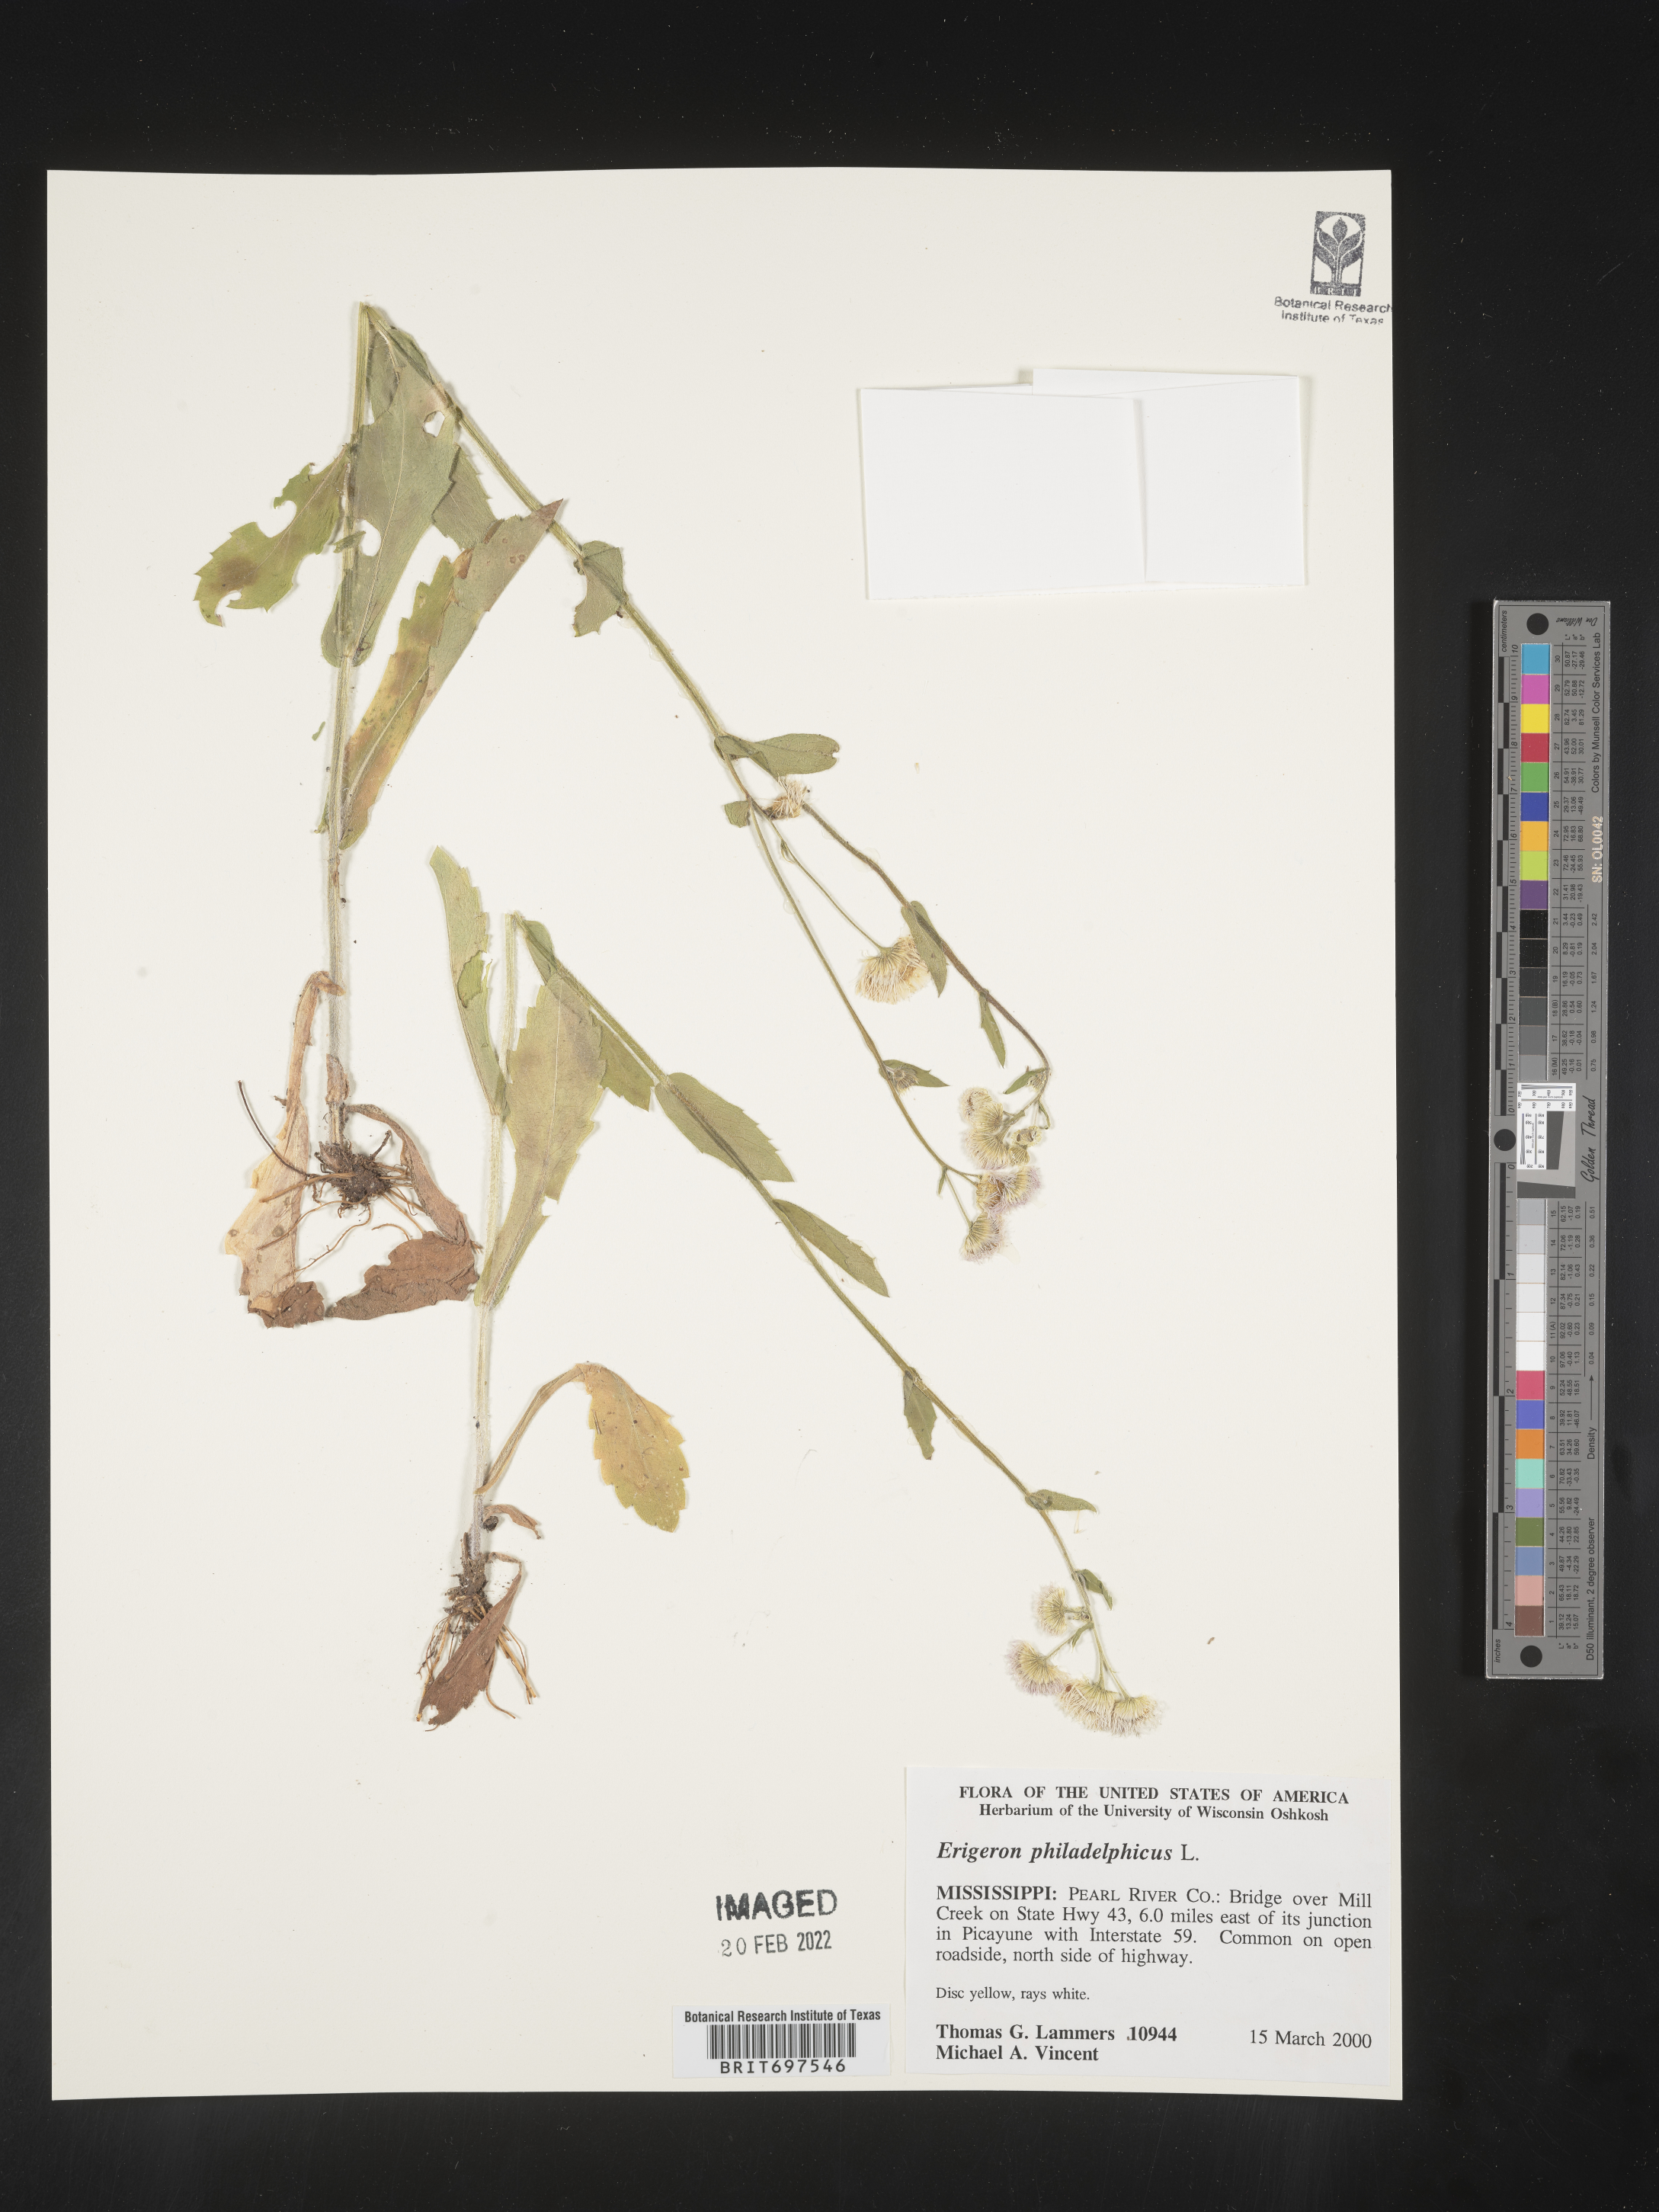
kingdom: Plantae
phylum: Tracheophyta
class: Magnoliopsida
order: Asterales
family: Asteraceae
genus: Erigeron
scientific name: Erigeron philadelphicus
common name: Robin's-plantain
